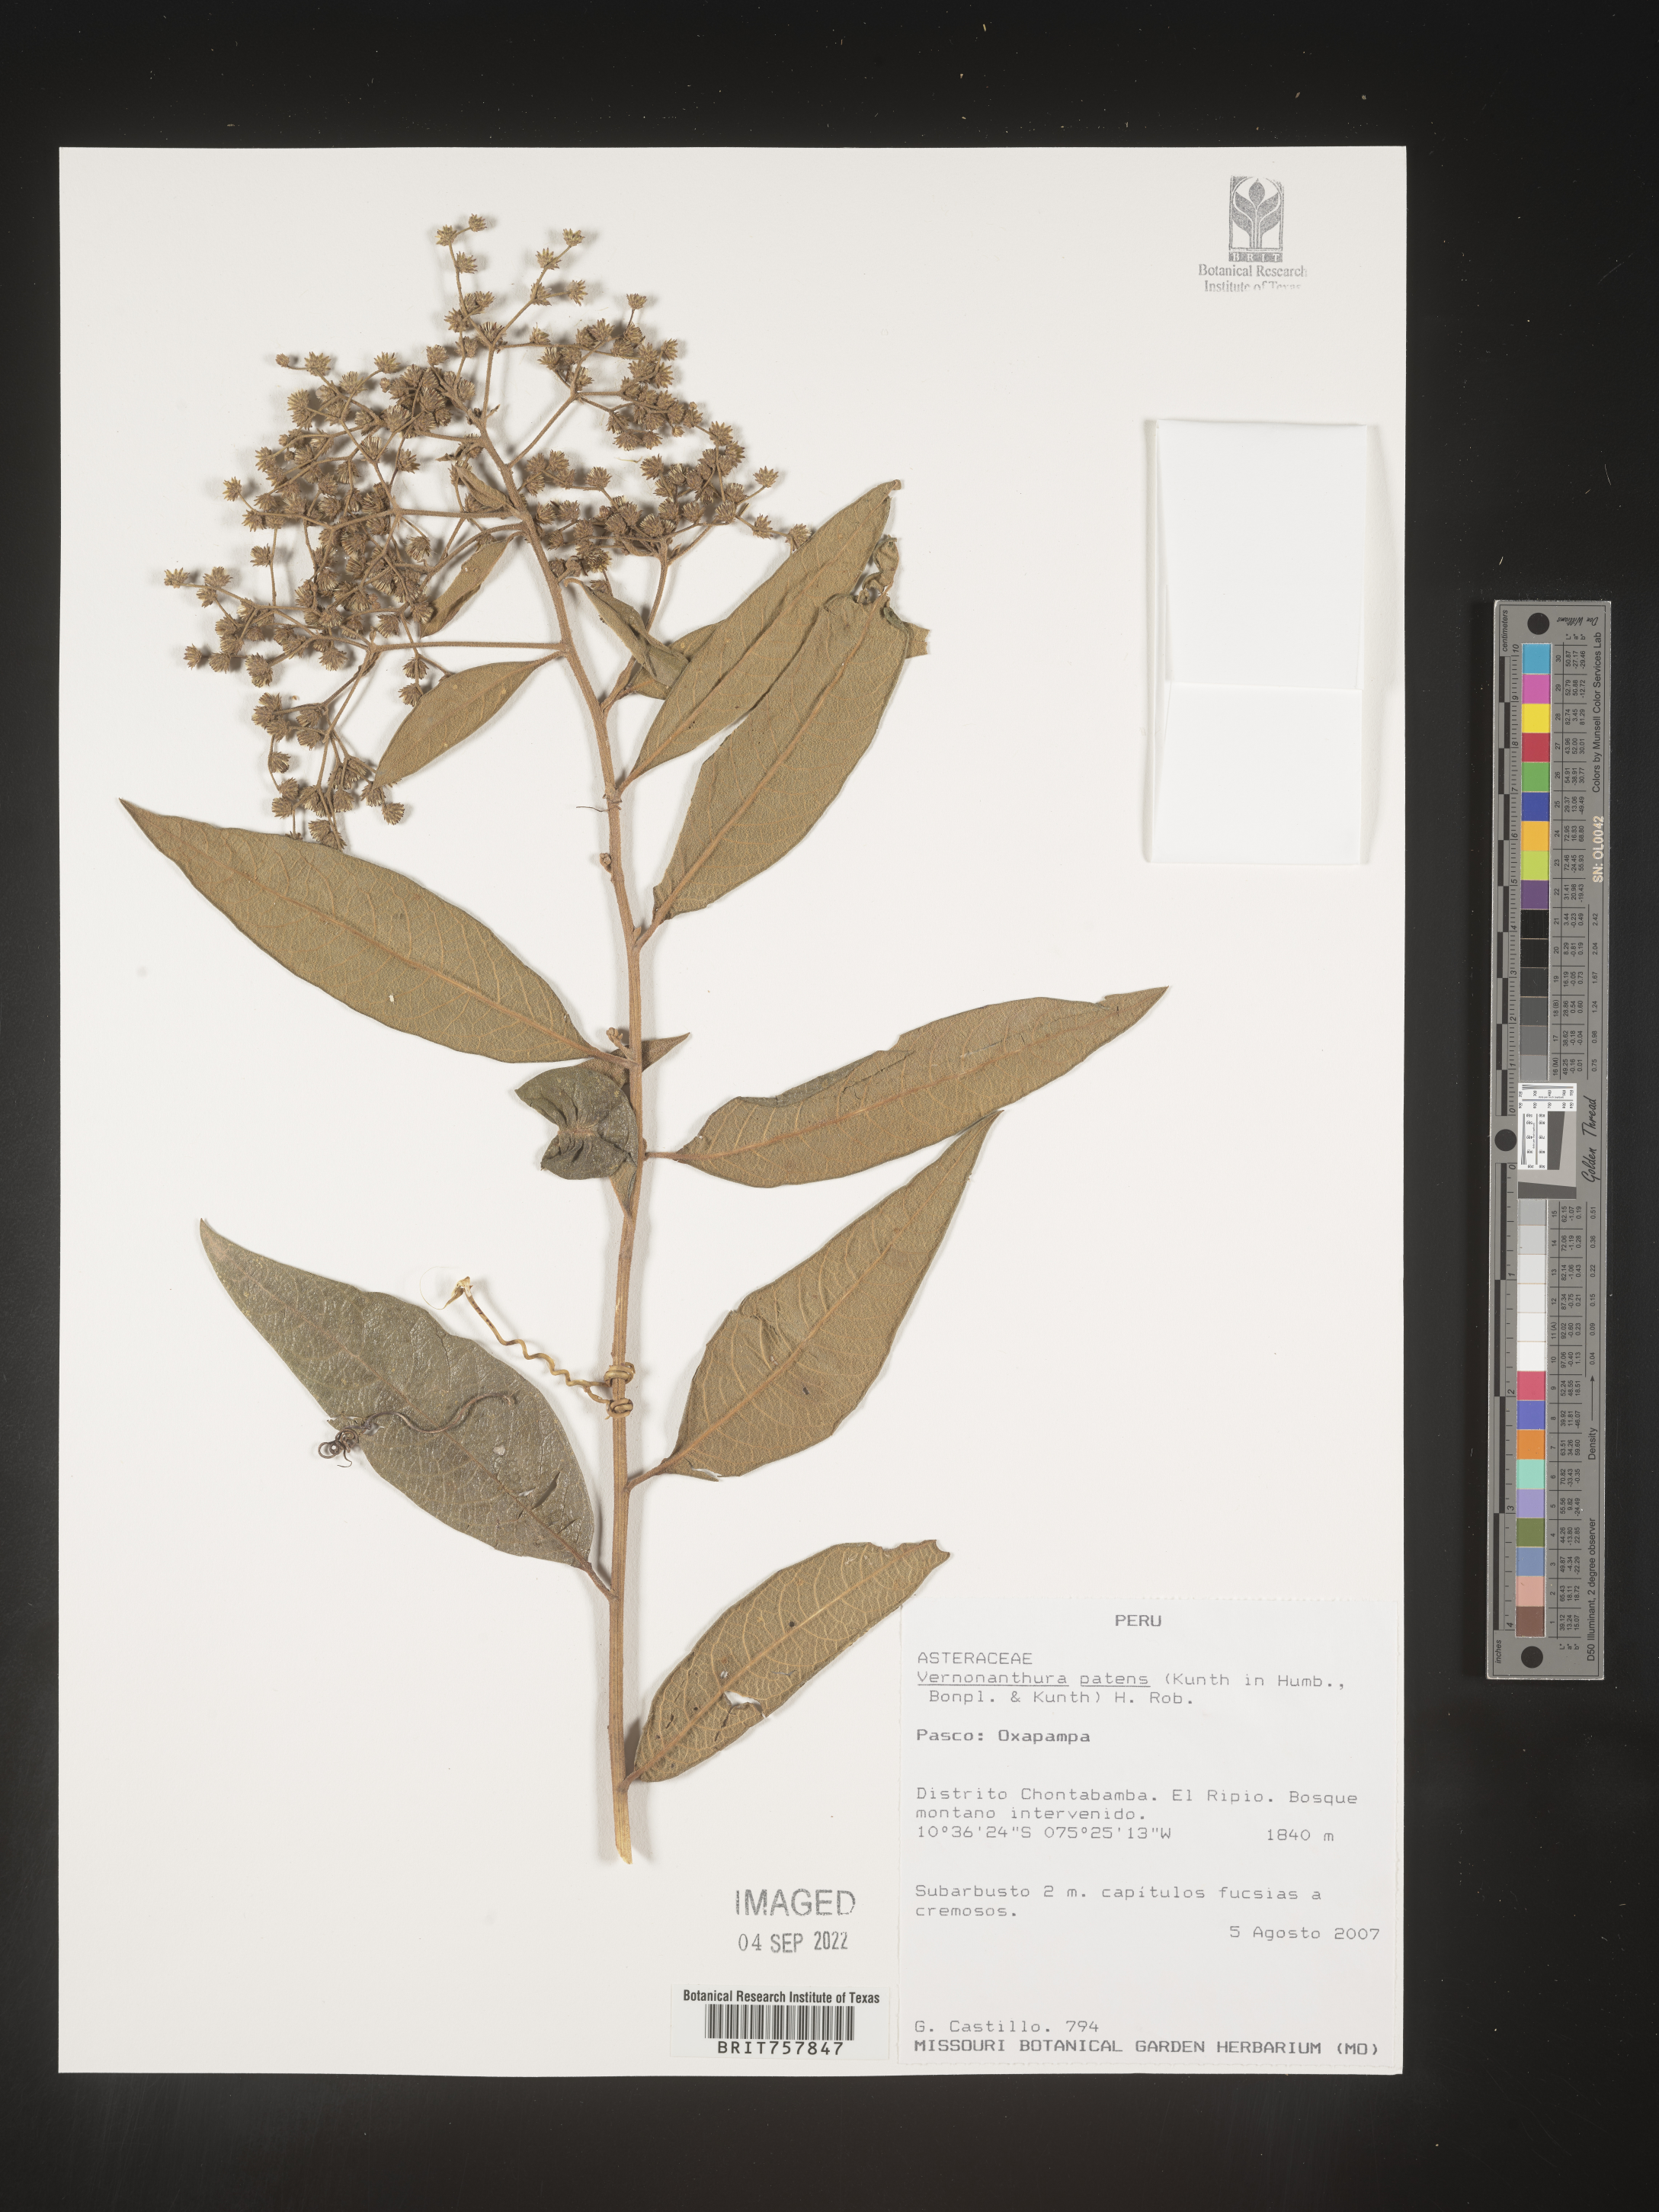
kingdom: Plantae
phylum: Tracheophyta
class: Magnoliopsida
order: Asterales
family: Asteraceae
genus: Vernonanthura
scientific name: Vernonanthura
